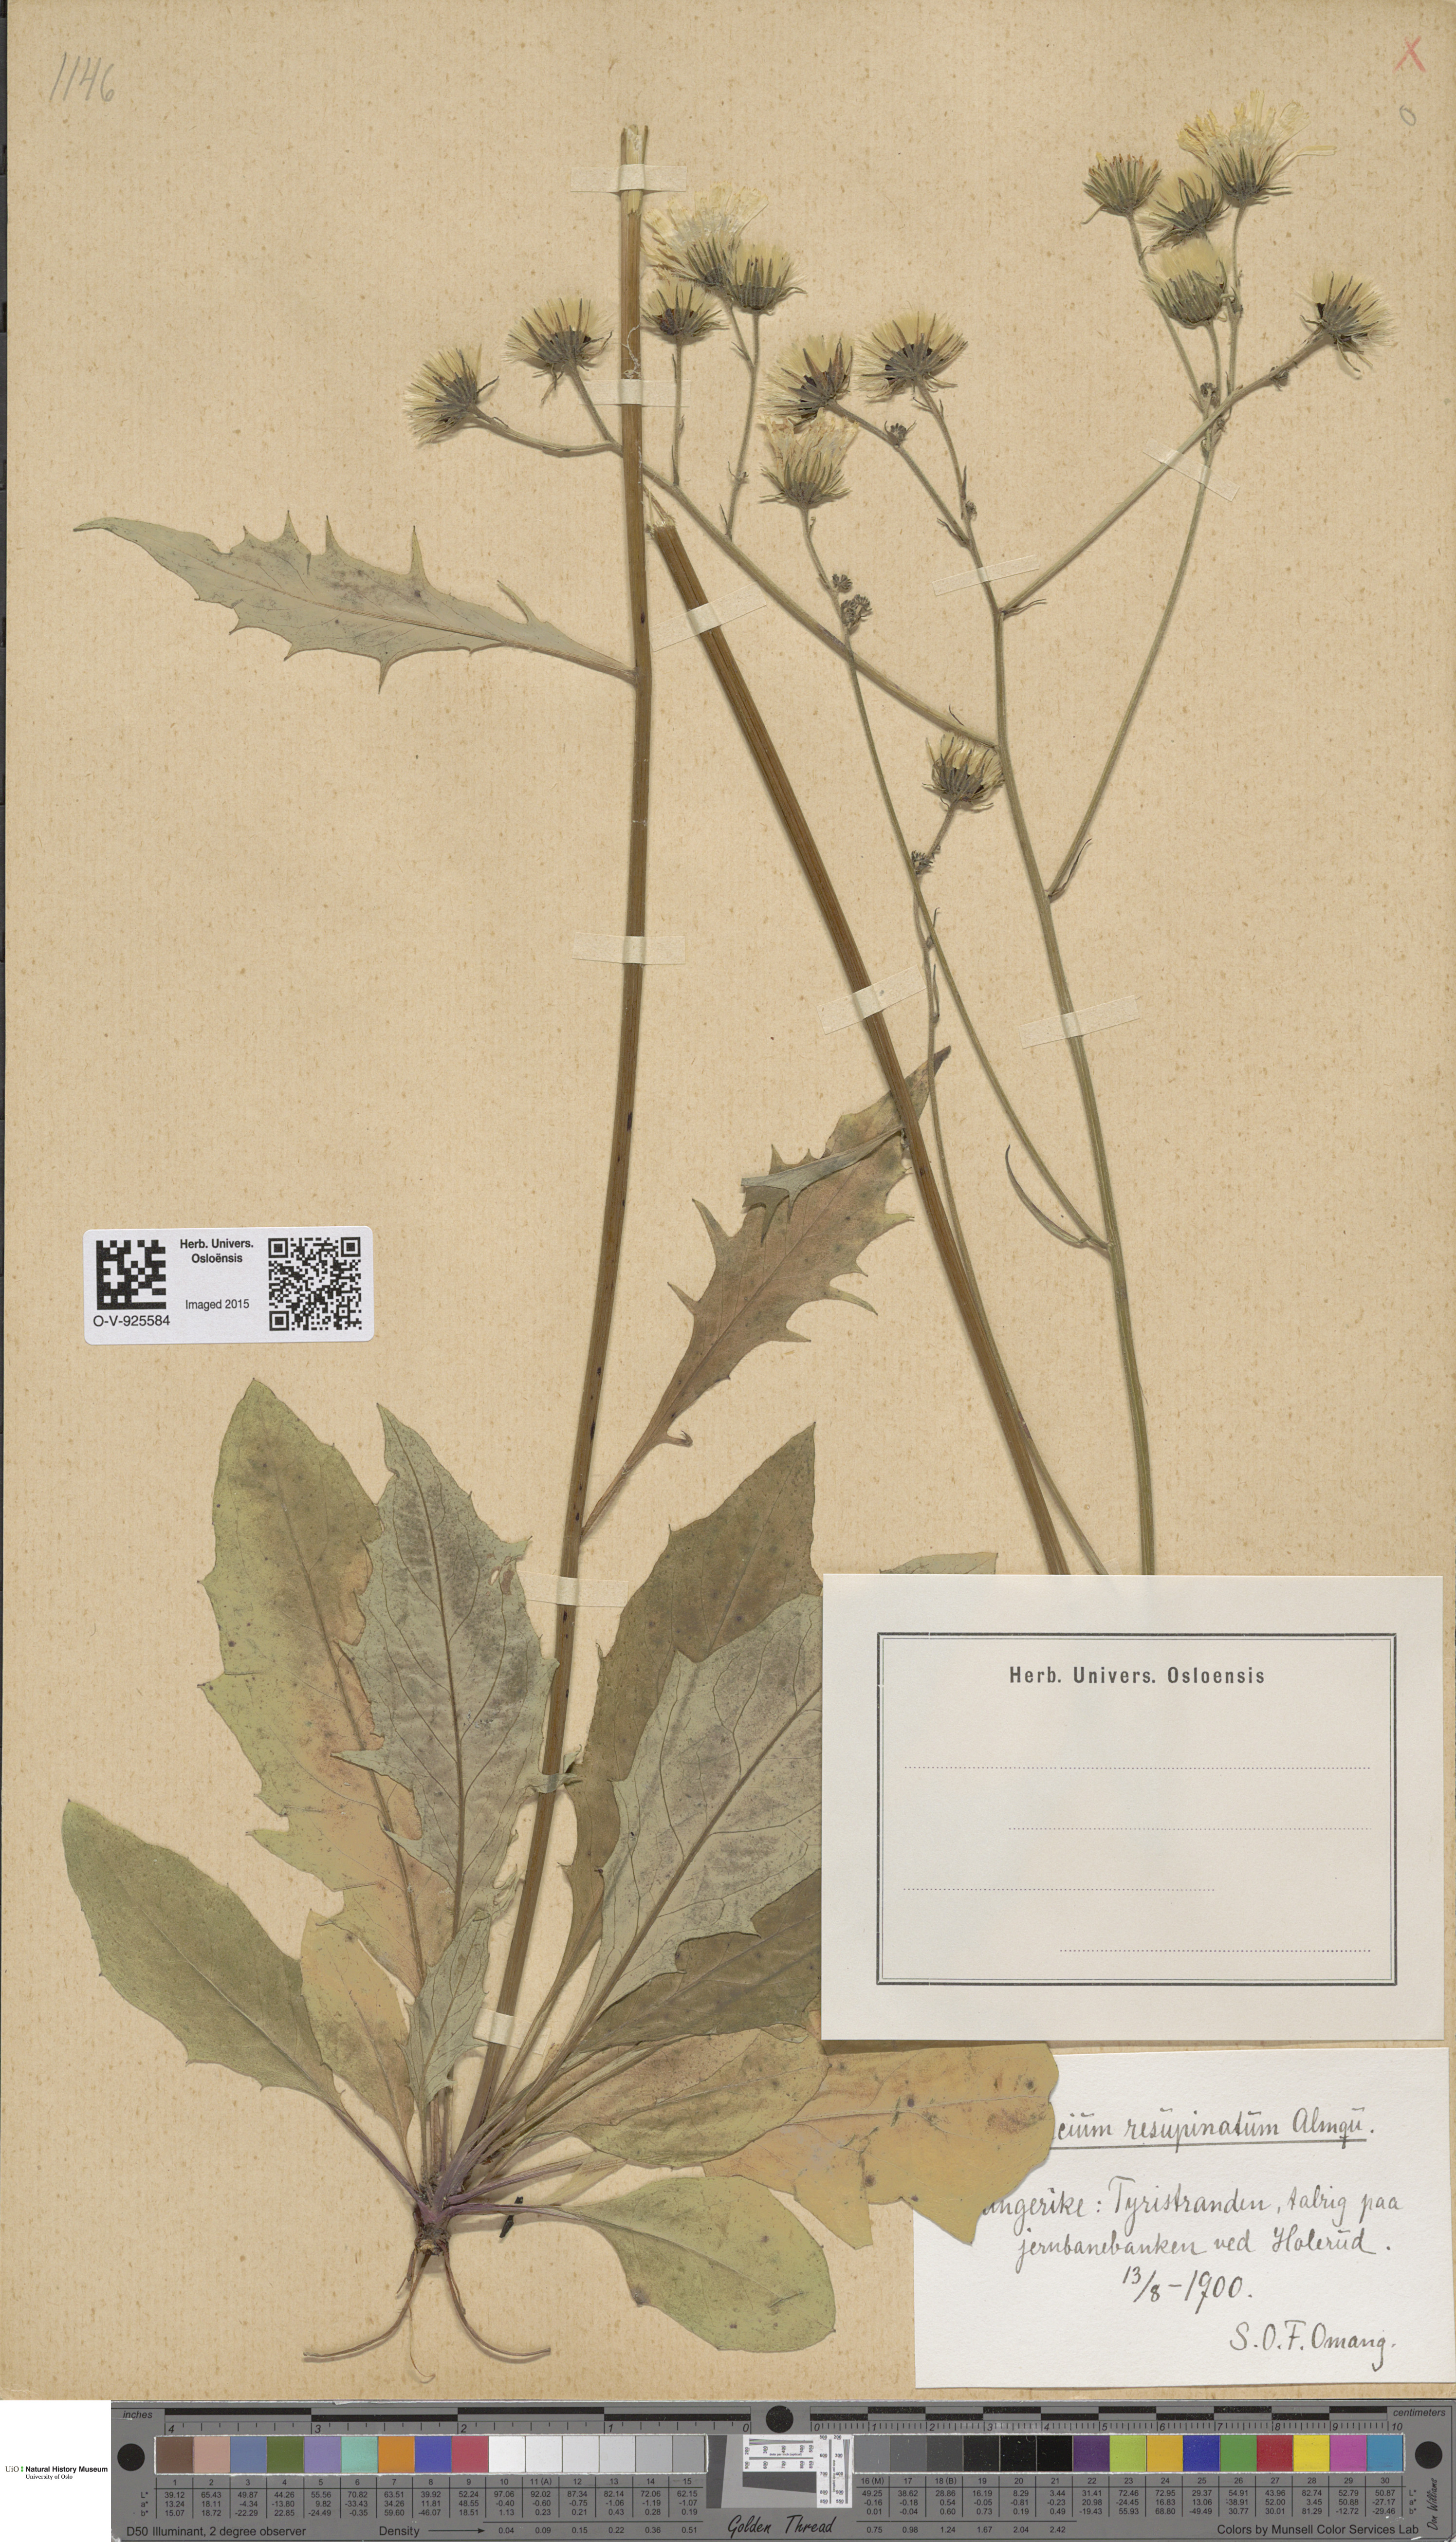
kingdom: Plantae
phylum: Tracheophyta
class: Magnoliopsida
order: Asterales
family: Asteraceae
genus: Hieracium
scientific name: Hieracium resupinatum
